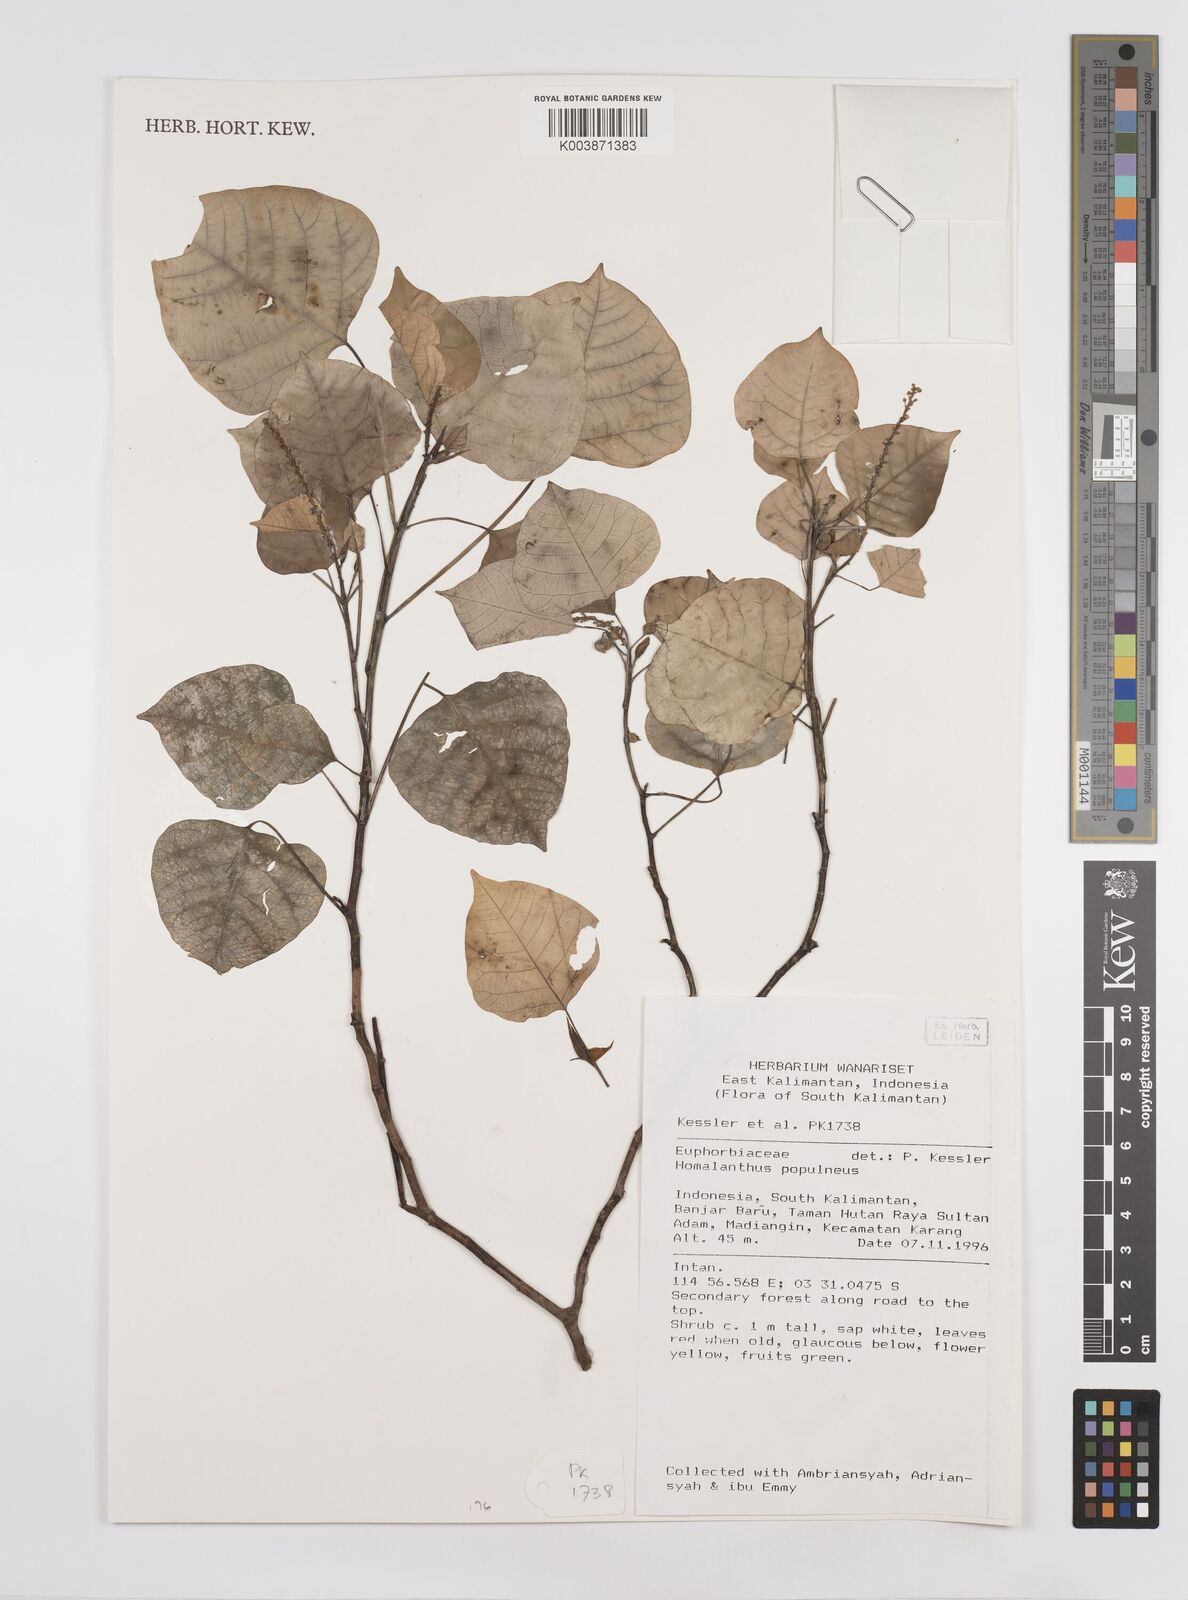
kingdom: Plantae
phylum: Tracheophyta
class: Magnoliopsida
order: Malpighiales
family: Euphorbiaceae
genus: Homalanthus
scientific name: Homalanthus populneus
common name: Spurge
